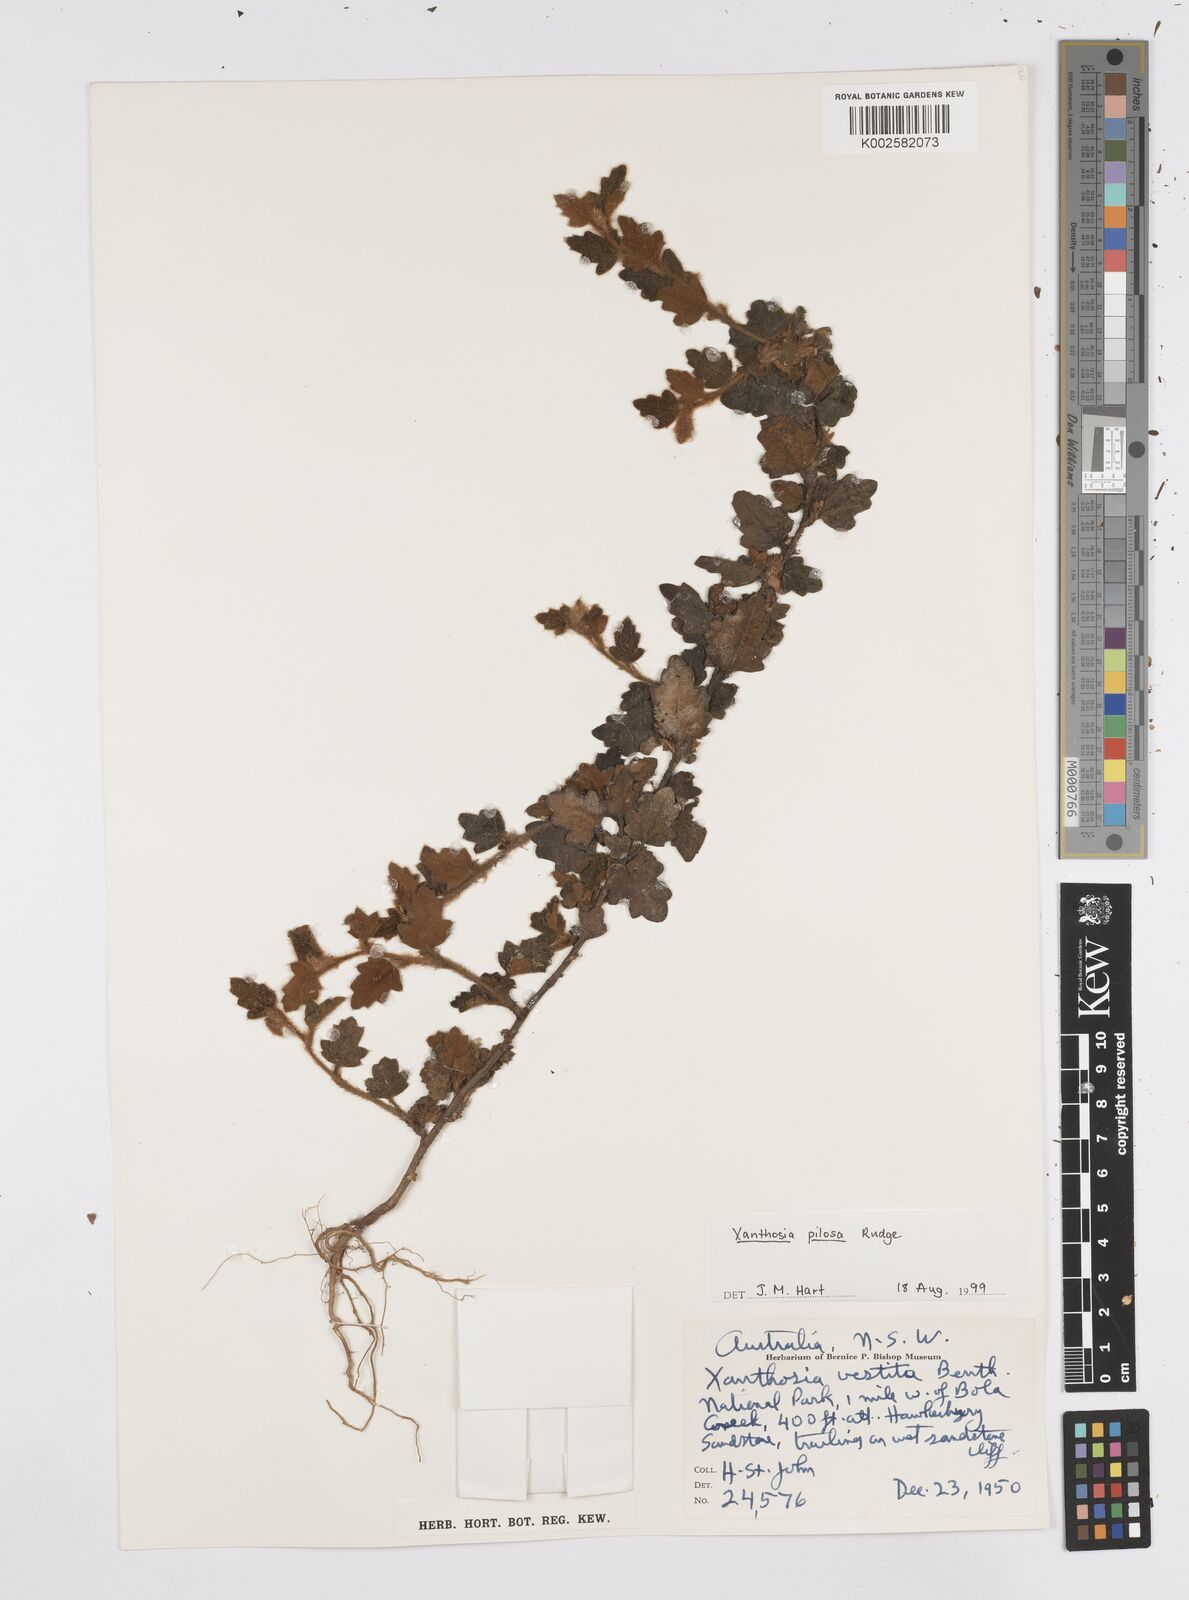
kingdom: Plantae
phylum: Tracheophyta
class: Magnoliopsida
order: Apiales
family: Apiaceae
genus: Xanthosia
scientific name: Xanthosia pilosa
